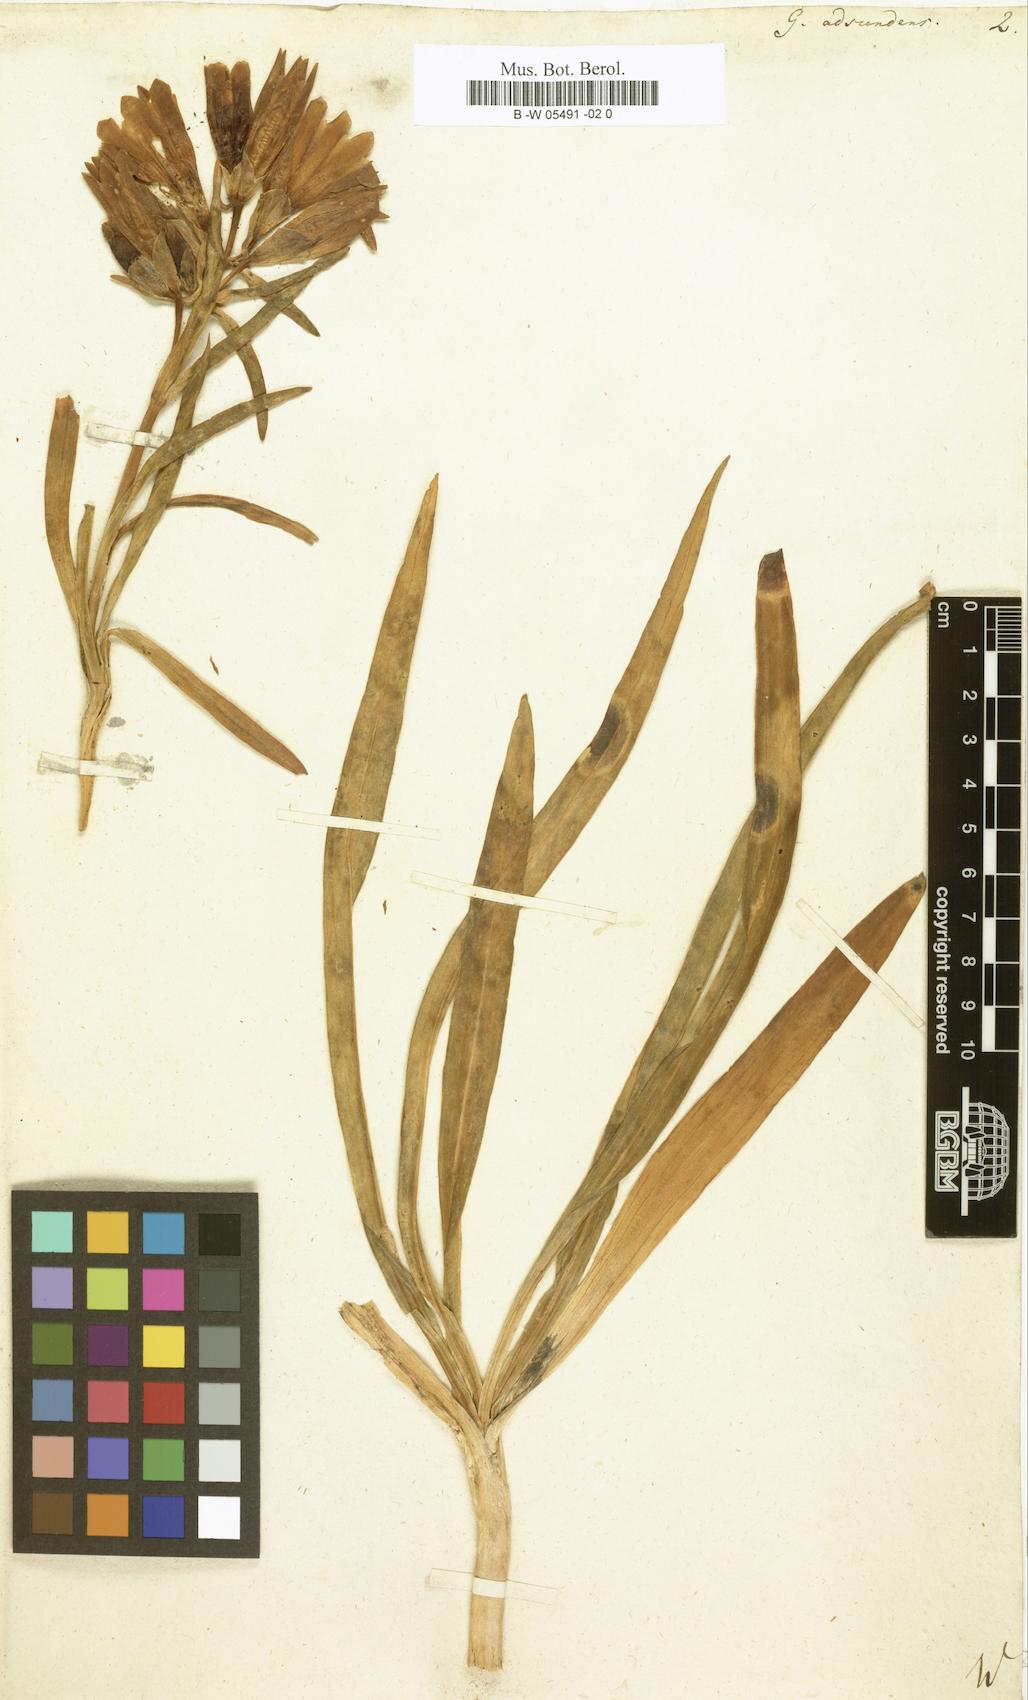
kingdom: Plantae
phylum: Tracheophyta
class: Magnoliopsida
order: Gentianales
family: Gentianaceae
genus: Gentiana
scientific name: Gentiana decumbens
